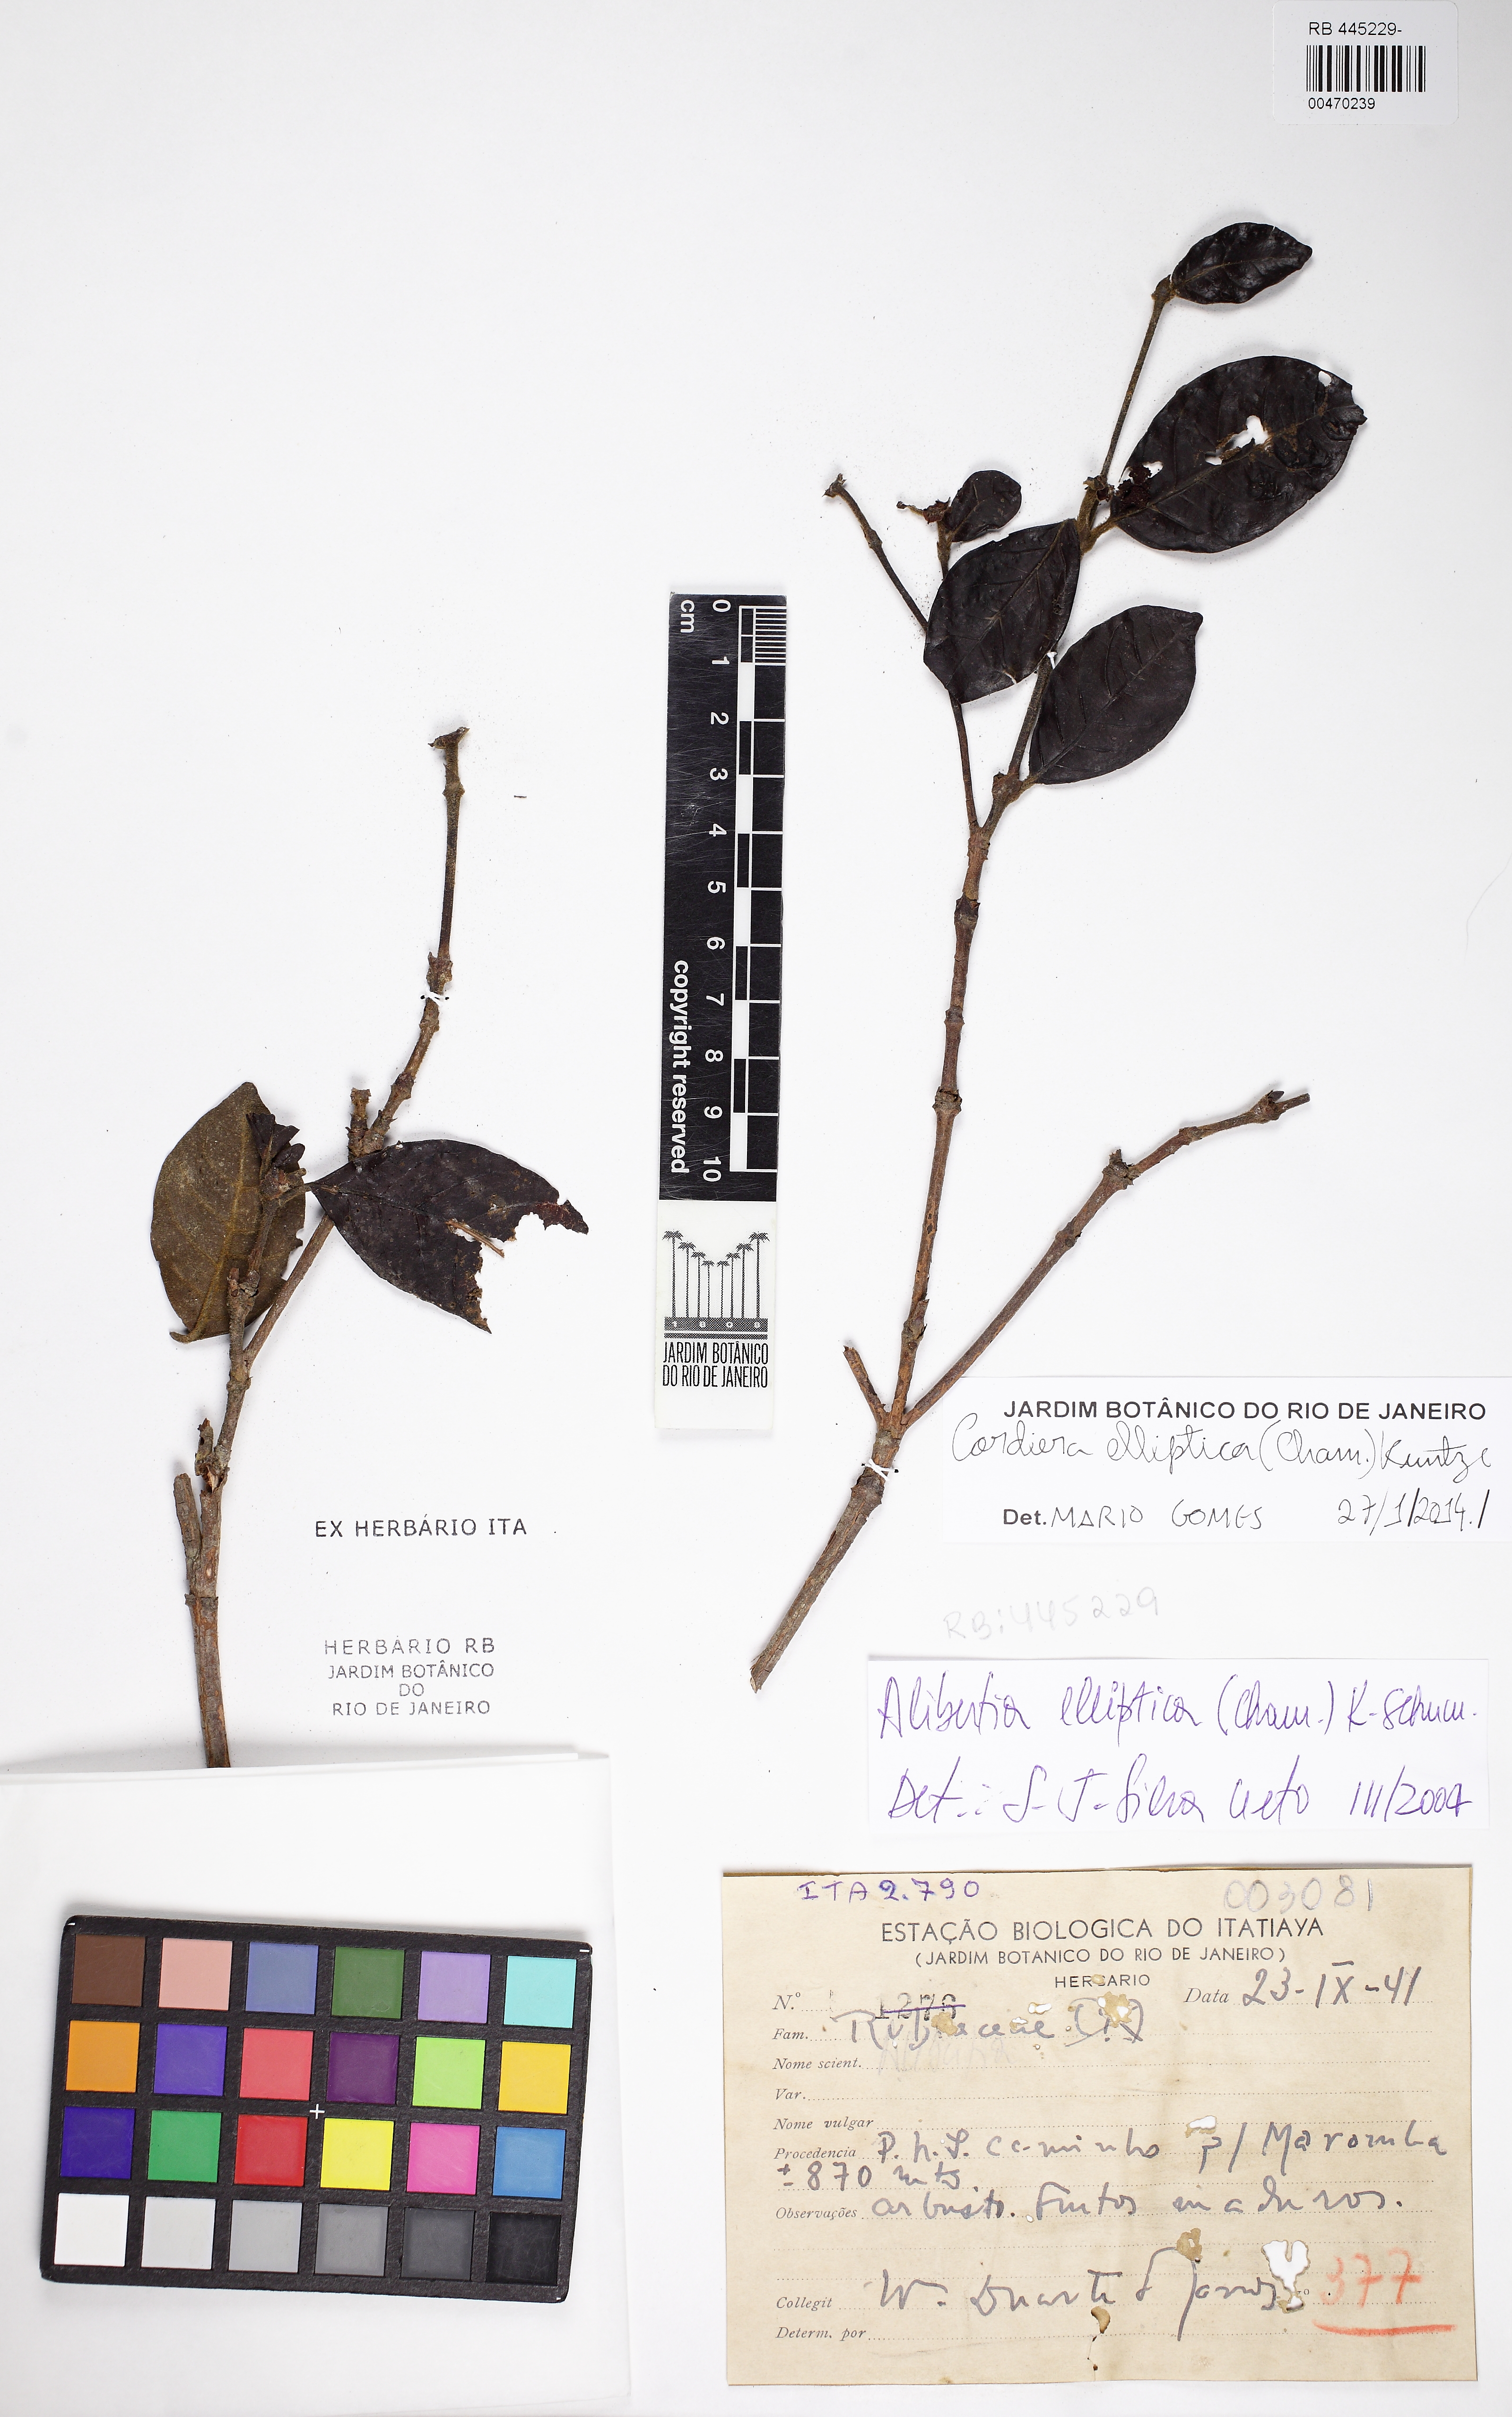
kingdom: Plantae
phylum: Tracheophyta
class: Magnoliopsida
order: Gentianales
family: Rubiaceae
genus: Cordiera
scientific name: Cordiera elliptica
